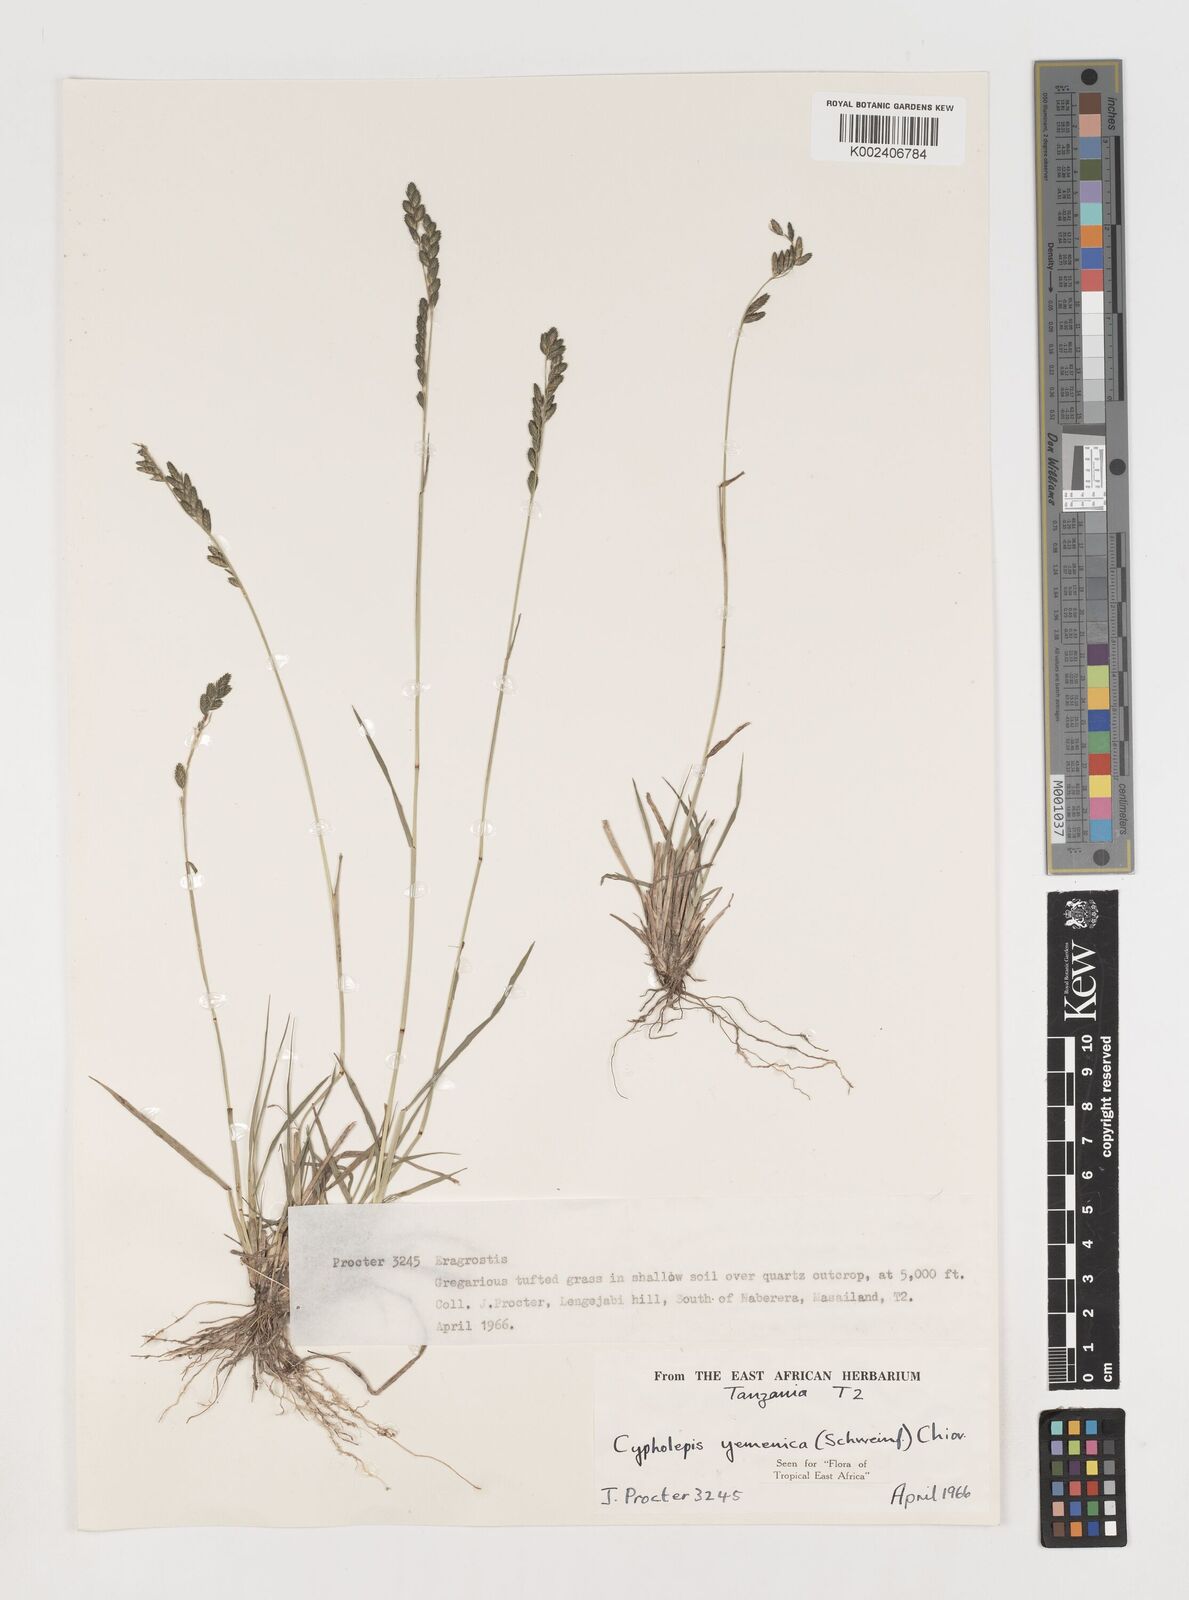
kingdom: Plantae
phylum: Tracheophyta
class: Liliopsida
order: Poales
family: Poaceae
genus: Disakisperma
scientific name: Disakisperma yemenicum
